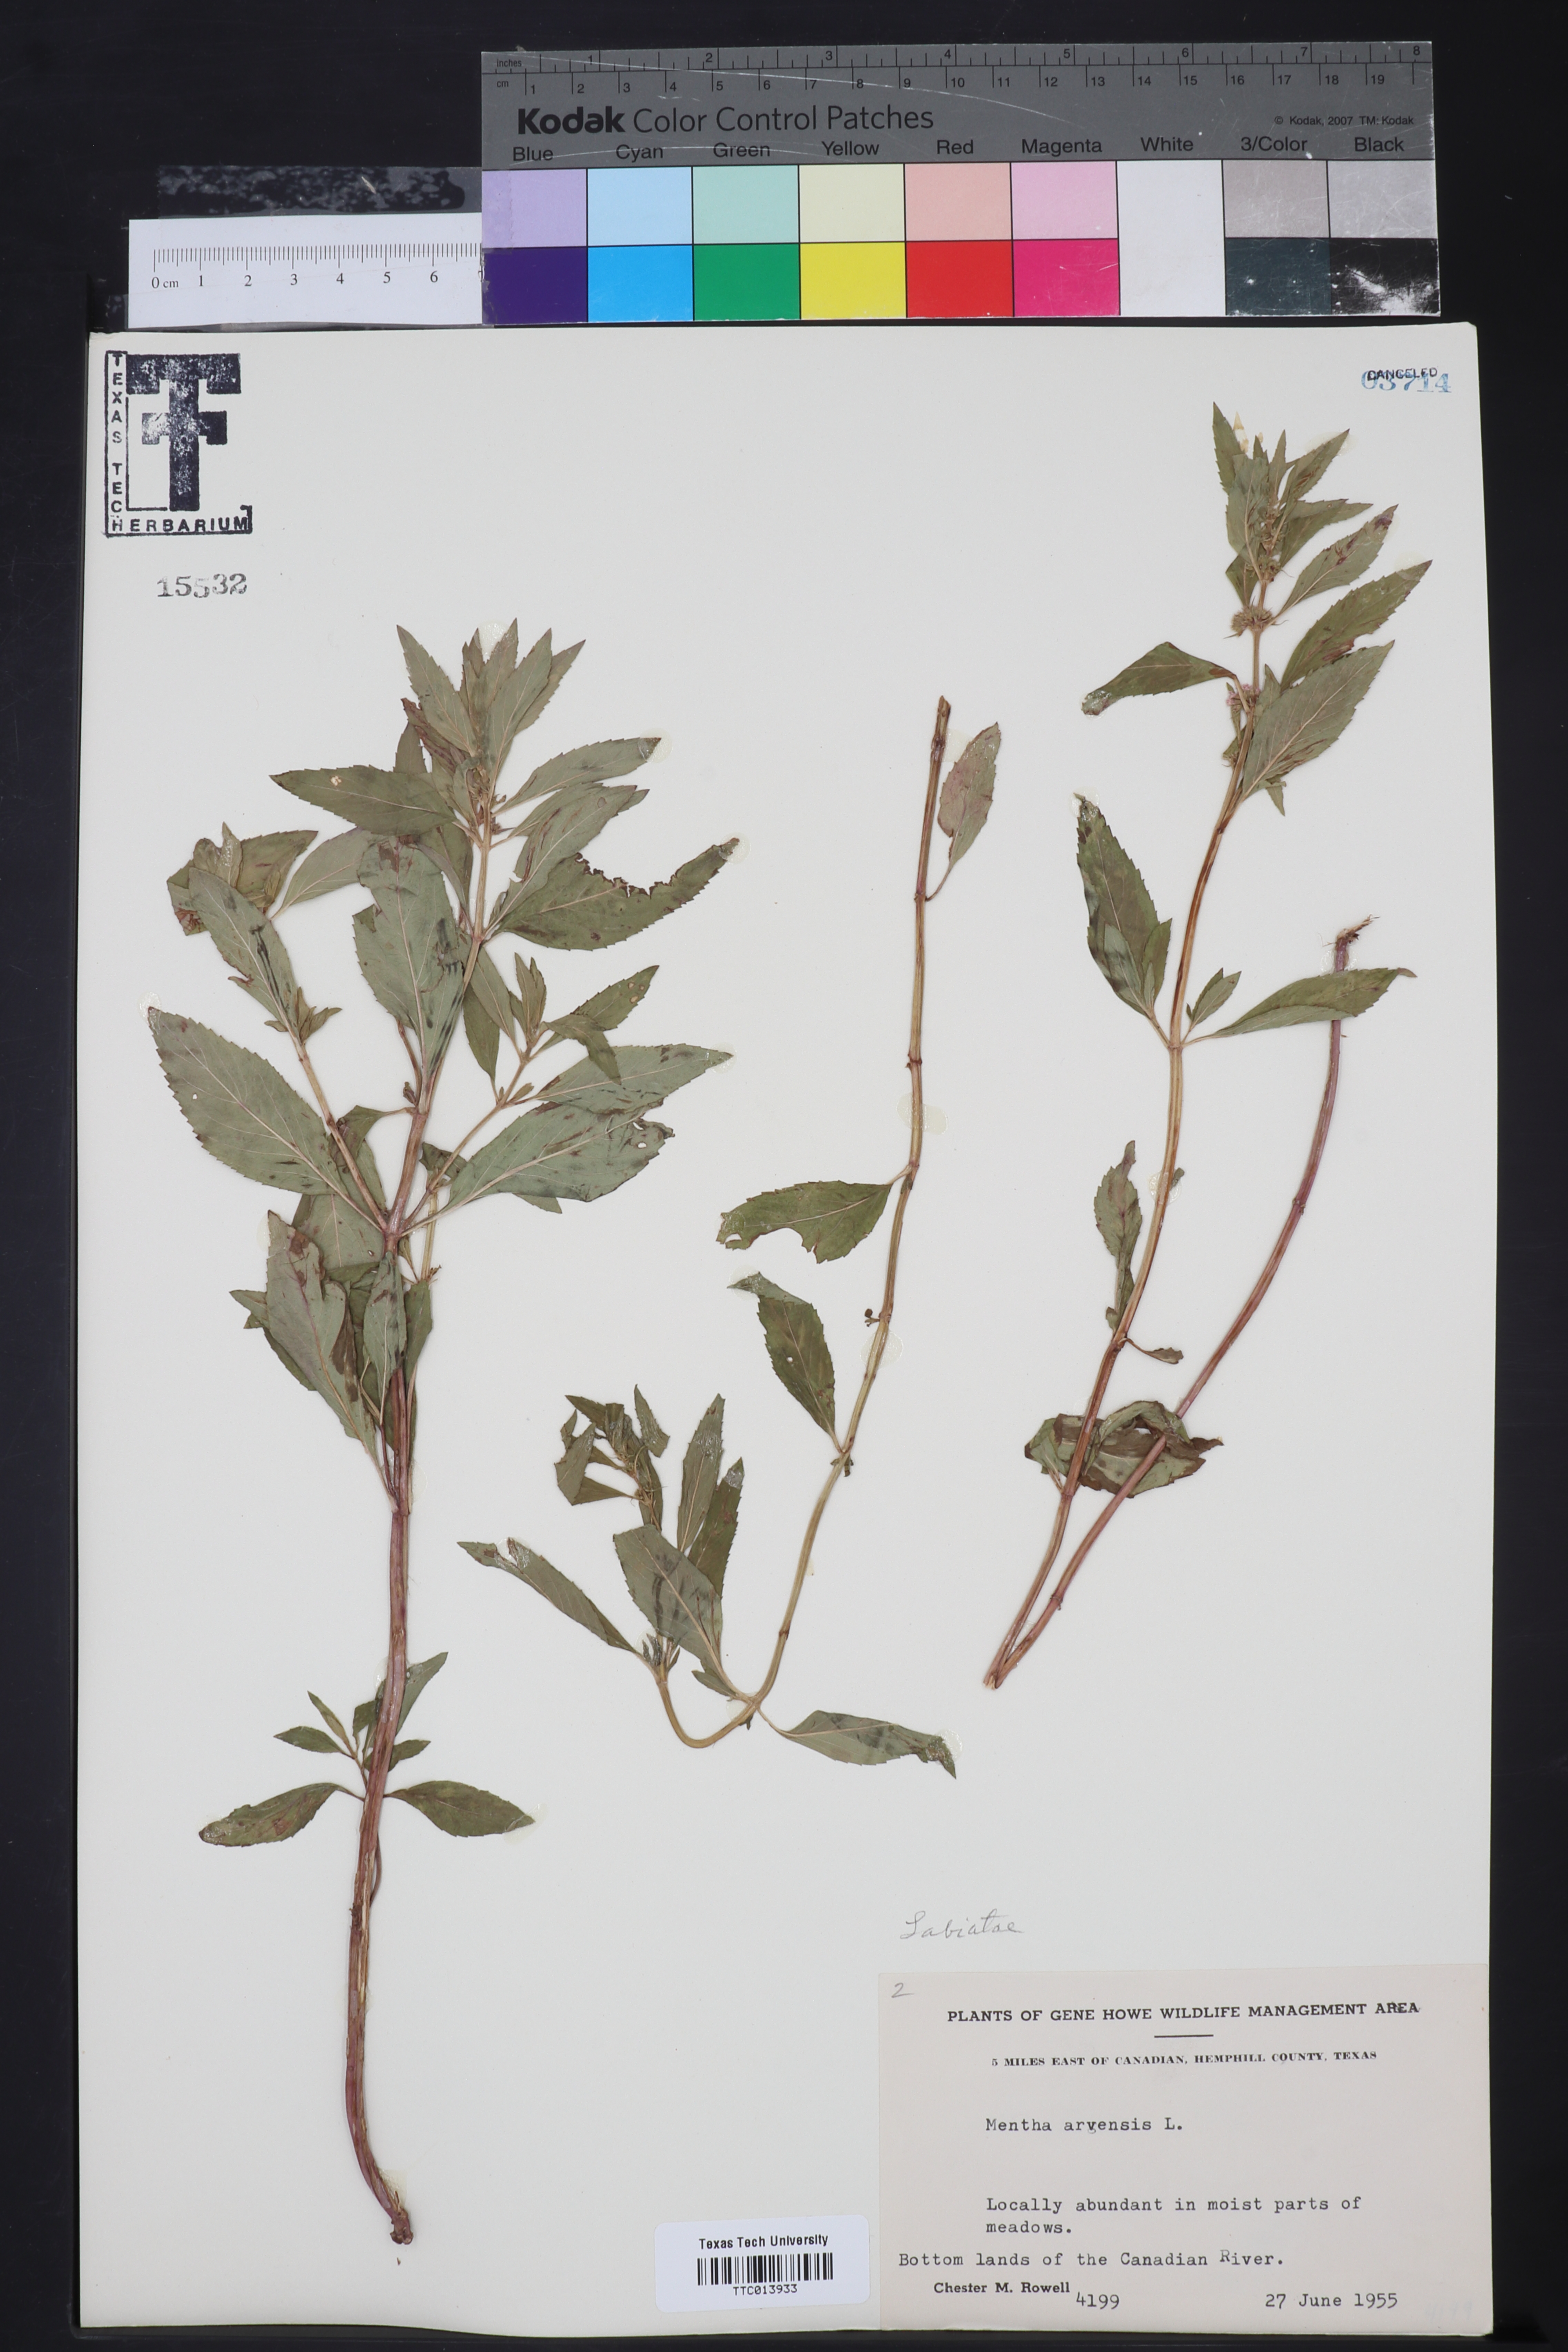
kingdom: Plantae
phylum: Tracheophyta
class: Magnoliopsida
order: Lamiales
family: Lamiaceae
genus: Mentha
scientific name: Mentha arvensis
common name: Corn mint
